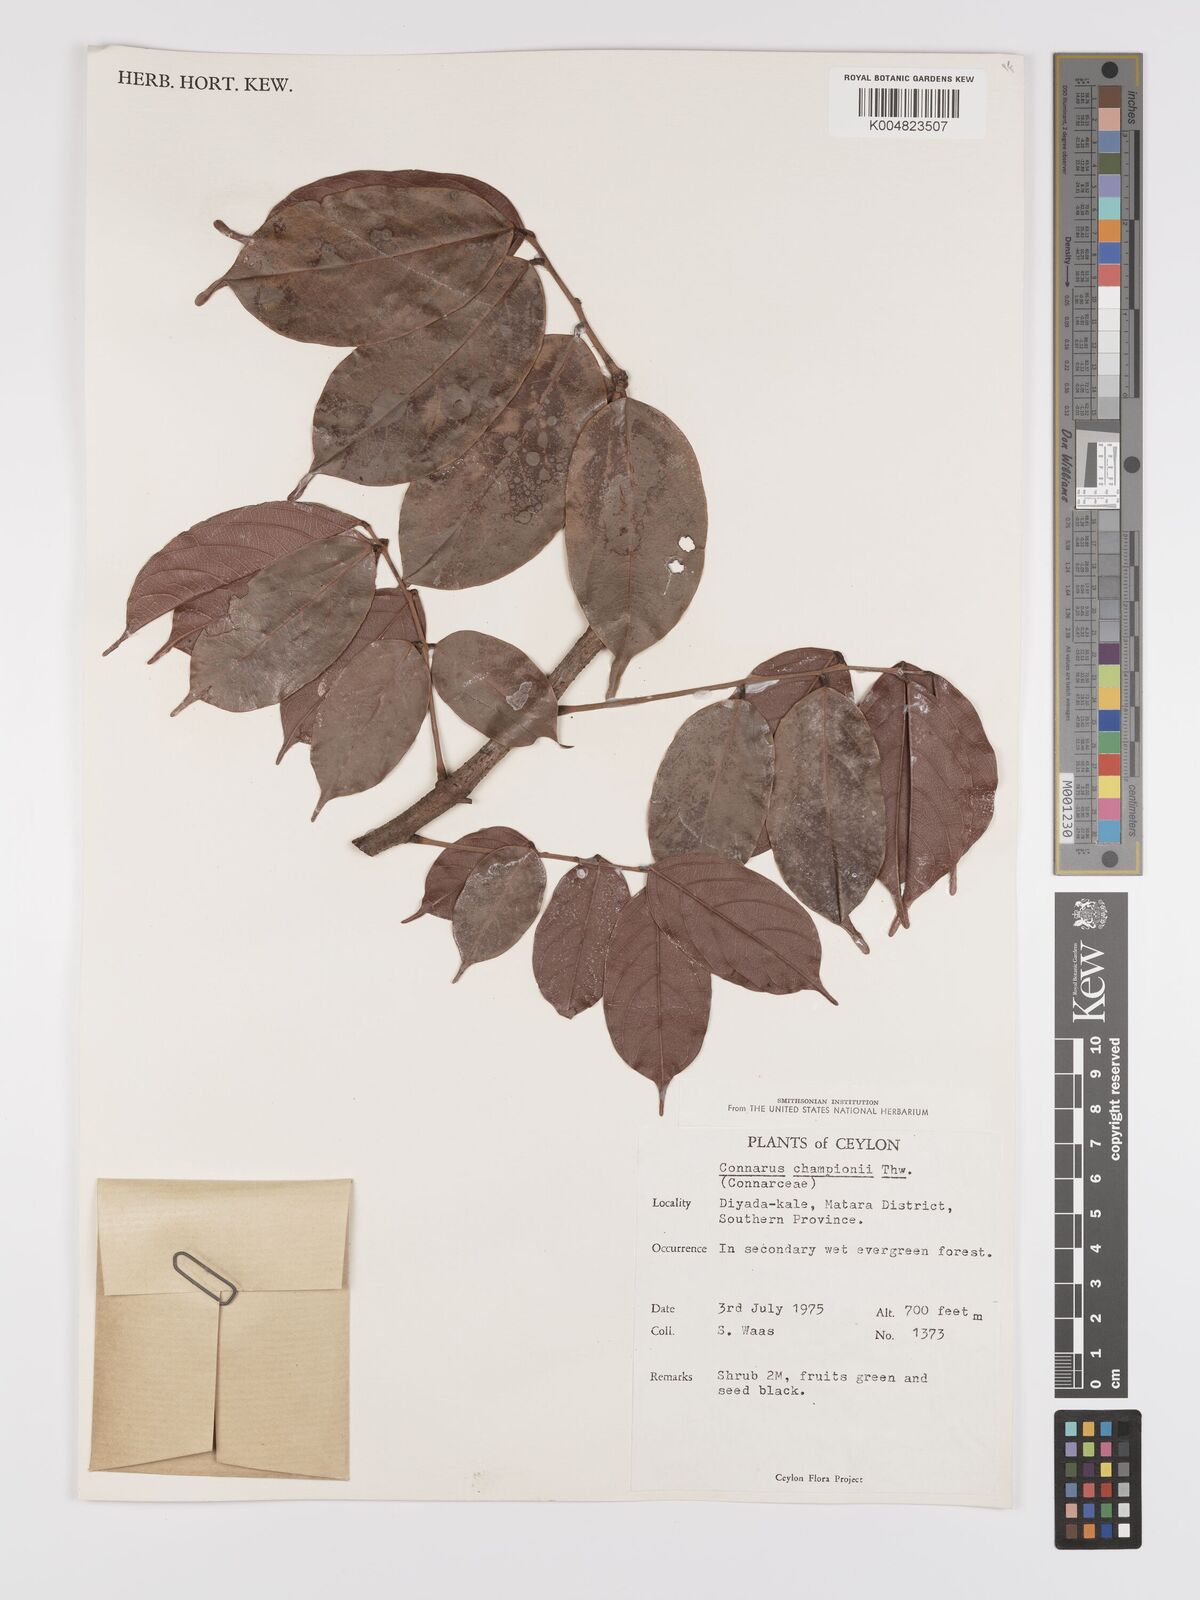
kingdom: Plantae
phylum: Tracheophyta
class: Magnoliopsida
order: Oxalidales
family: Connaraceae
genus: Connarus
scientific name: Connarus semidecandrus
